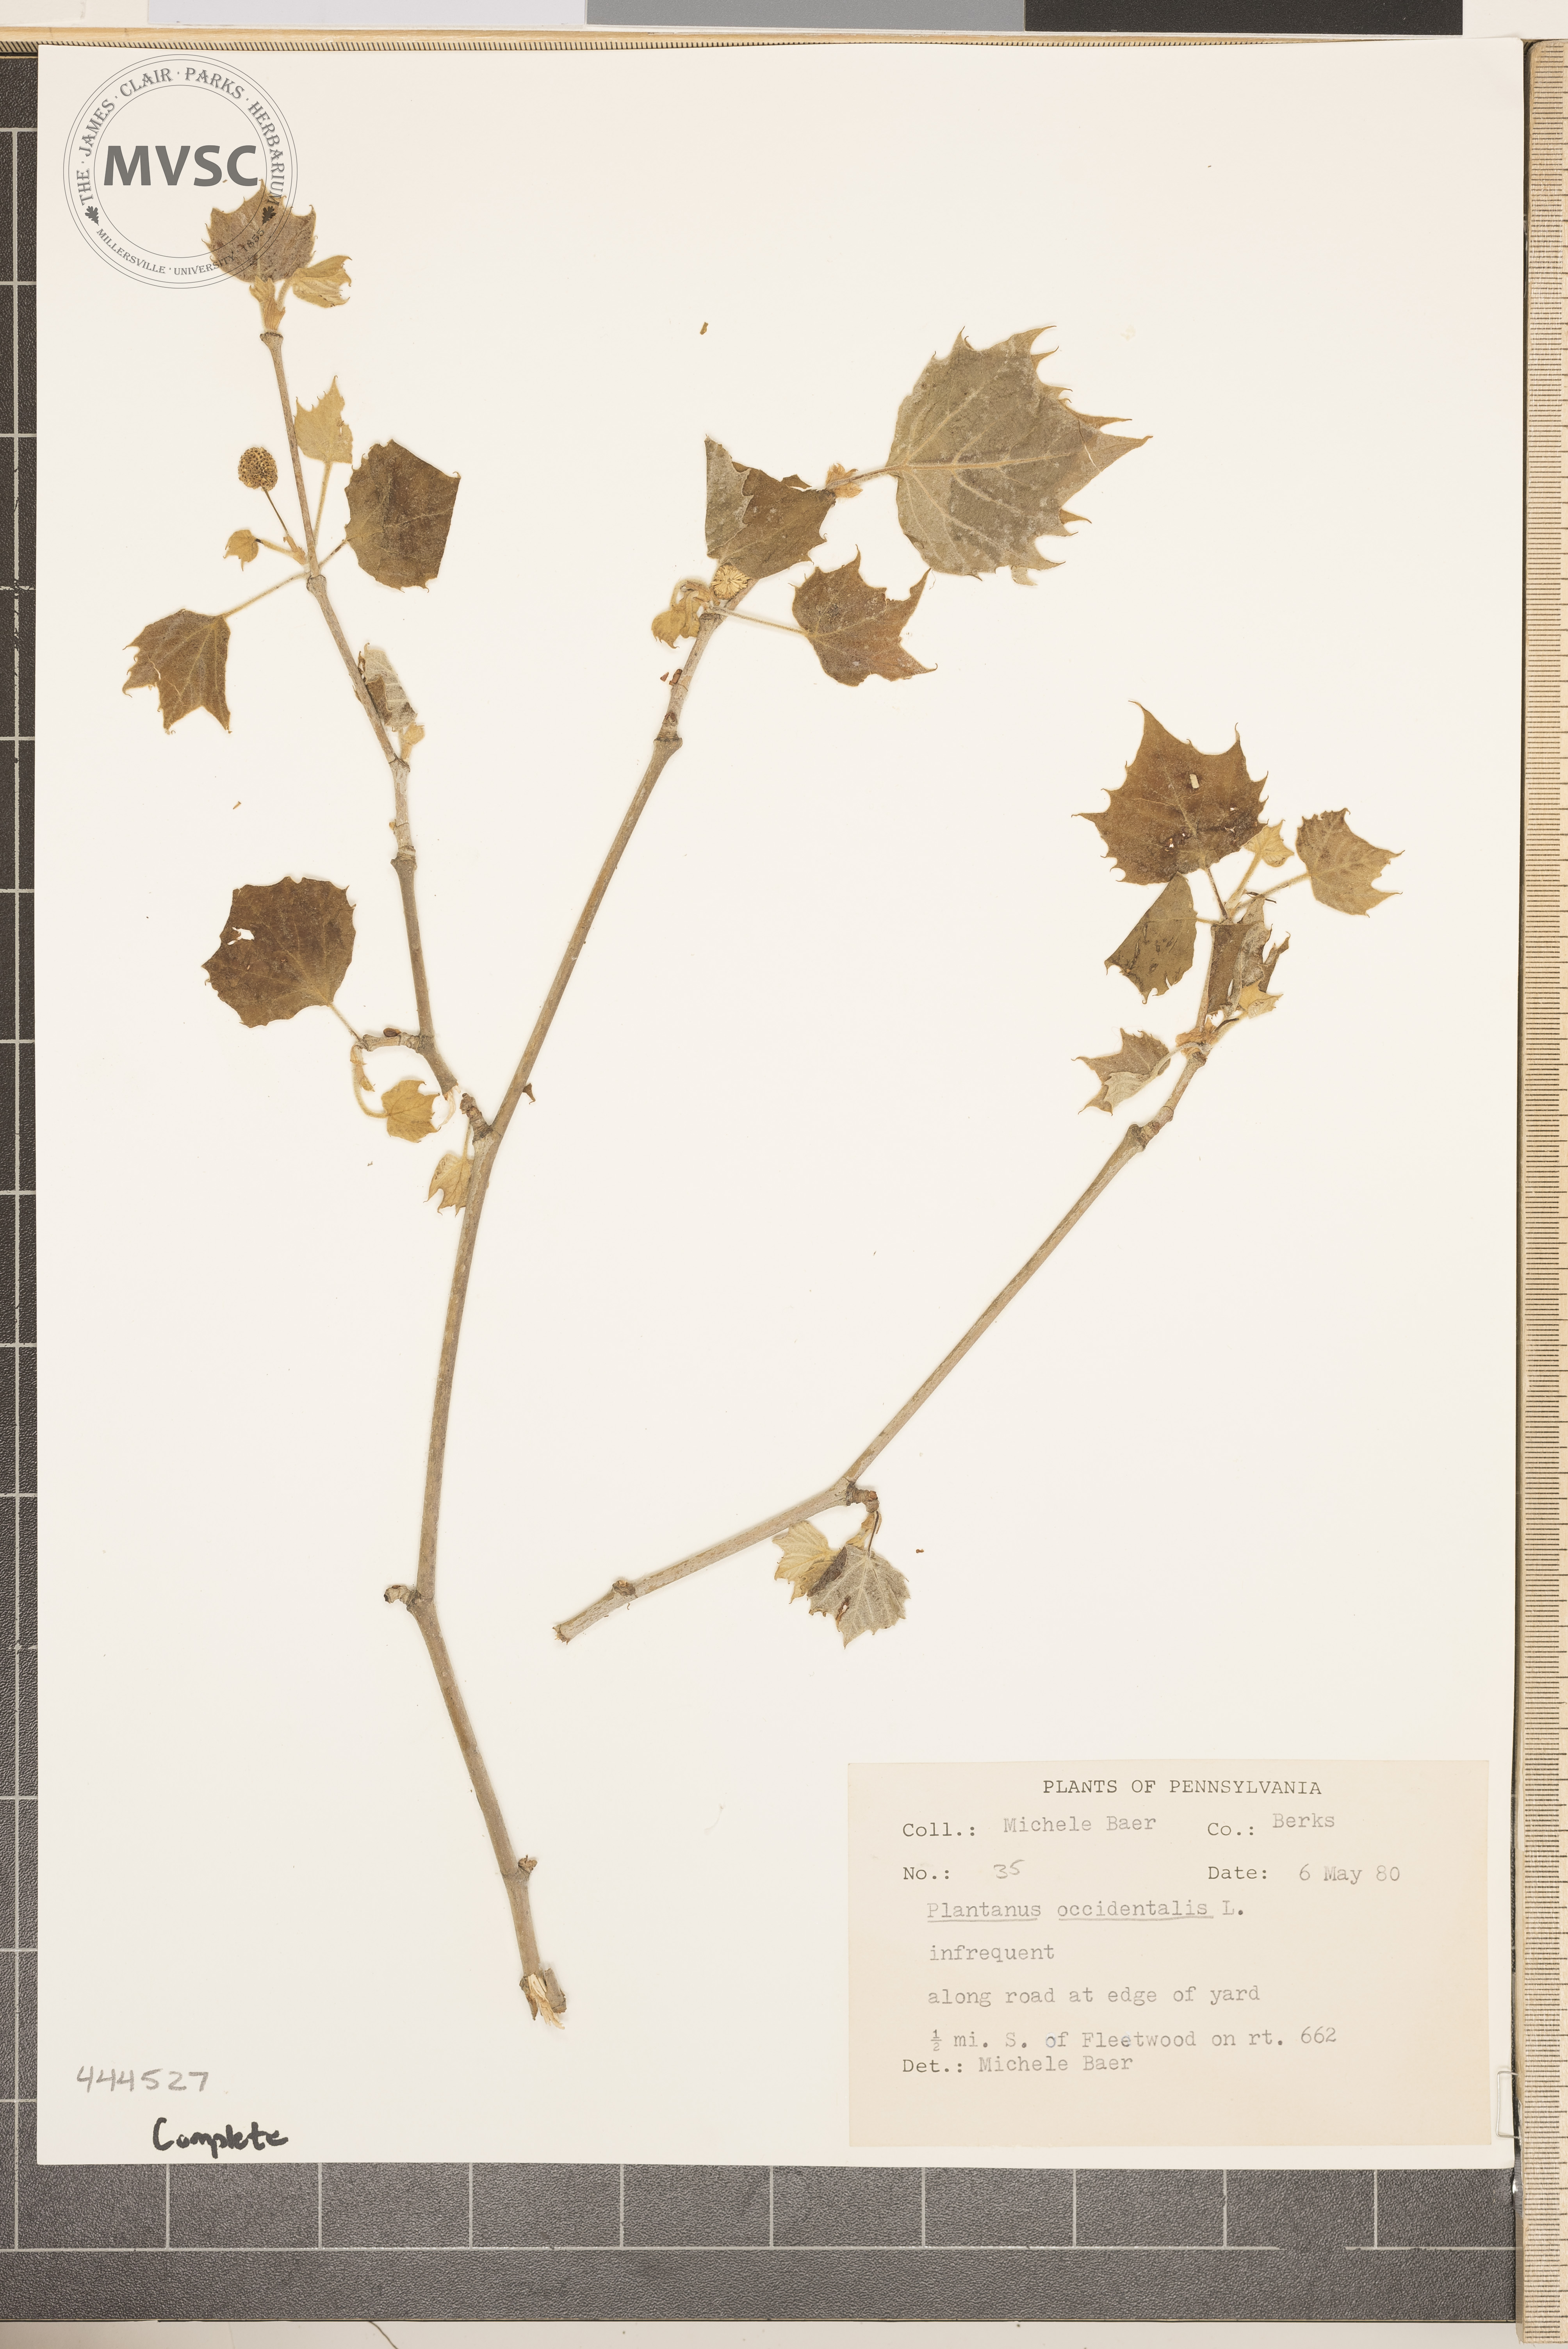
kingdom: Plantae
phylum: Tracheophyta
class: Magnoliopsida
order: Proteales
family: Platanaceae
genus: Platanus
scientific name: Platanus occidentalis
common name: American sycamore
